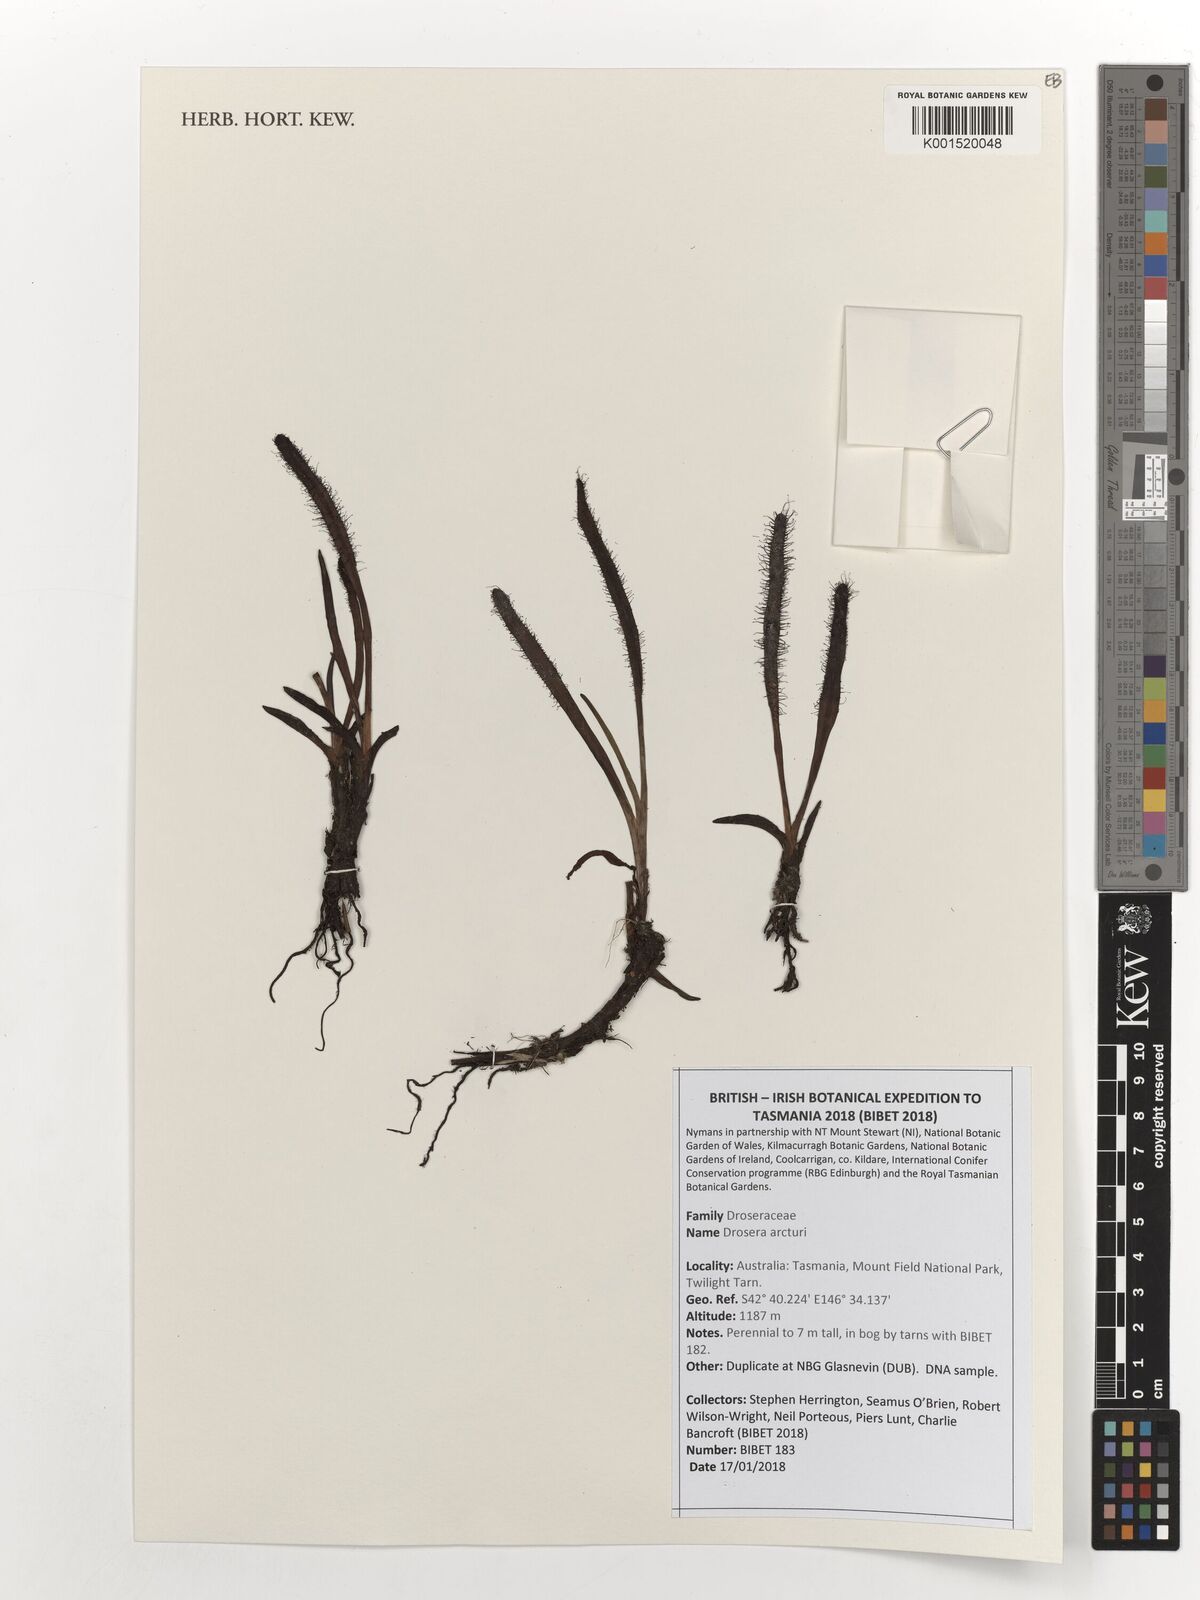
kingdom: Plantae
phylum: Tracheophyta
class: Magnoliopsida
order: Caryophyllales
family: Droseraceae
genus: Drosera
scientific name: Drosera arcturi
